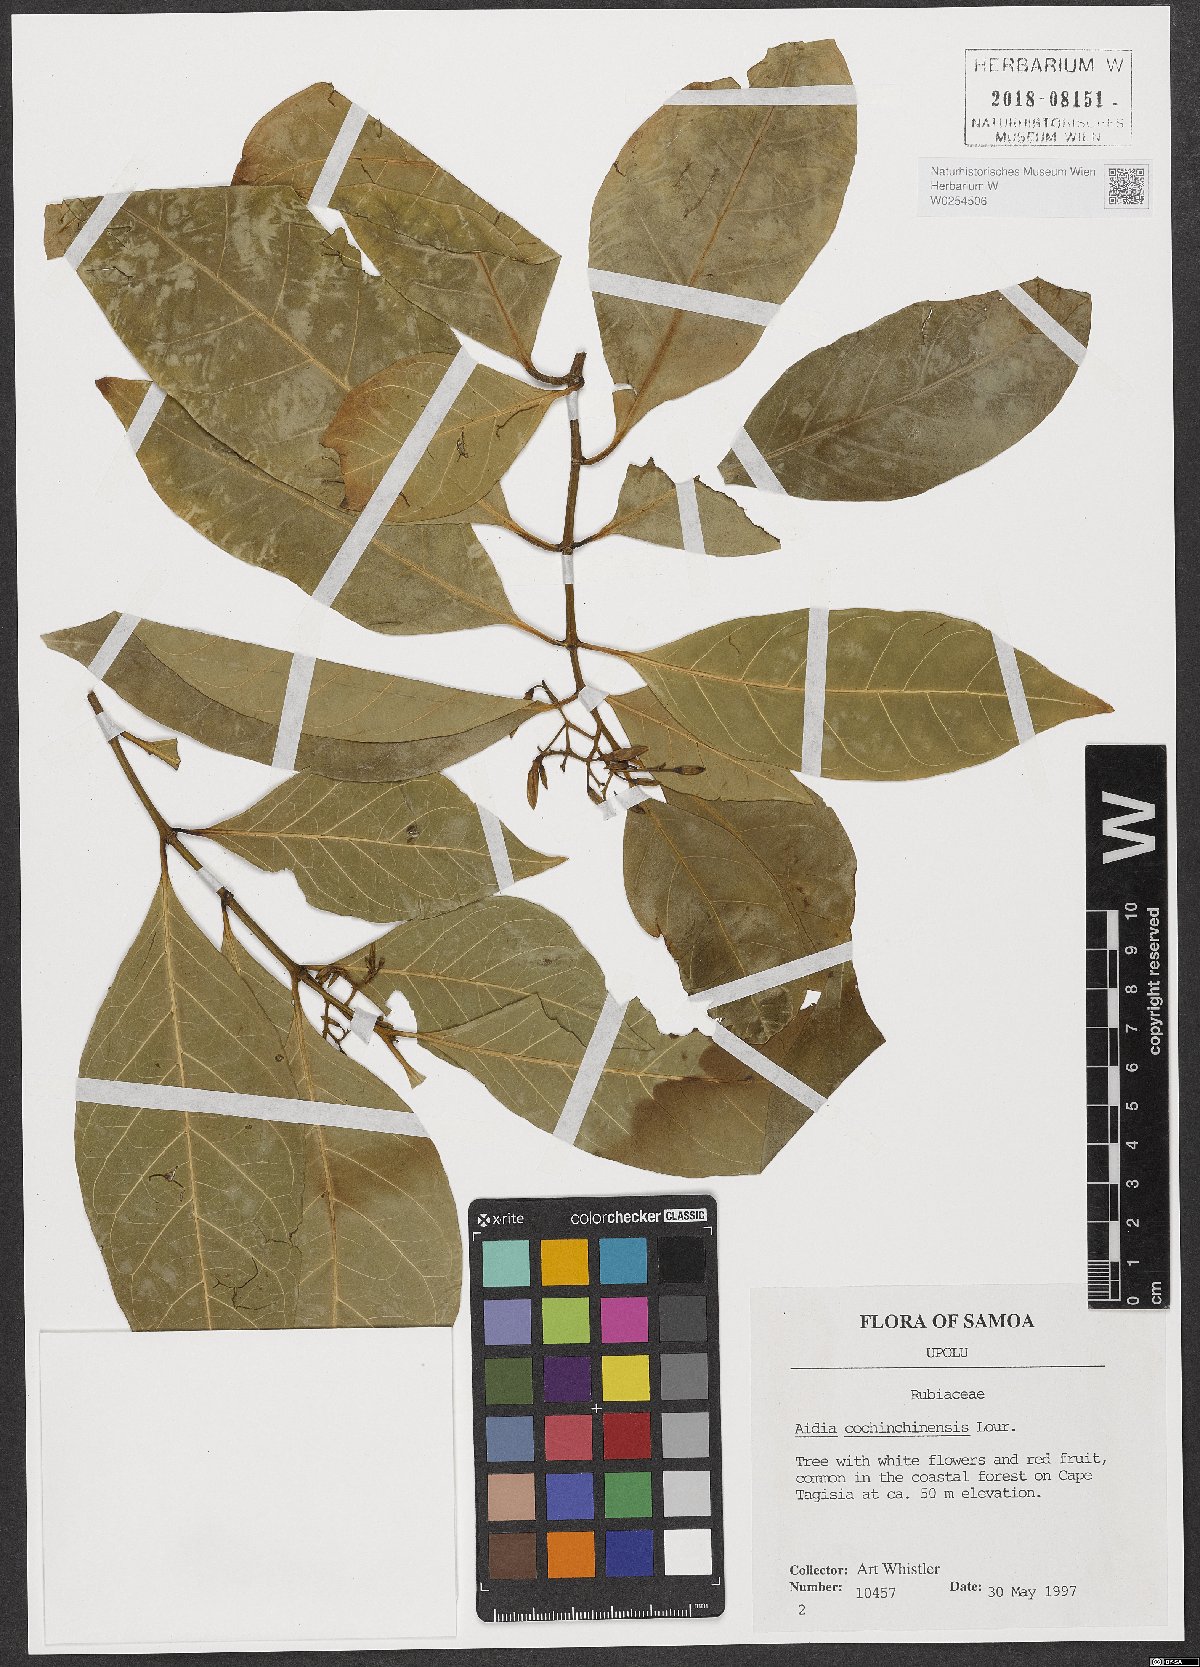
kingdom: Plantae
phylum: Tracheophyta
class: Magnoliopsida
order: Gentianales
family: Rubiaceae
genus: Aidia
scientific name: Aidia cochinchinensis
